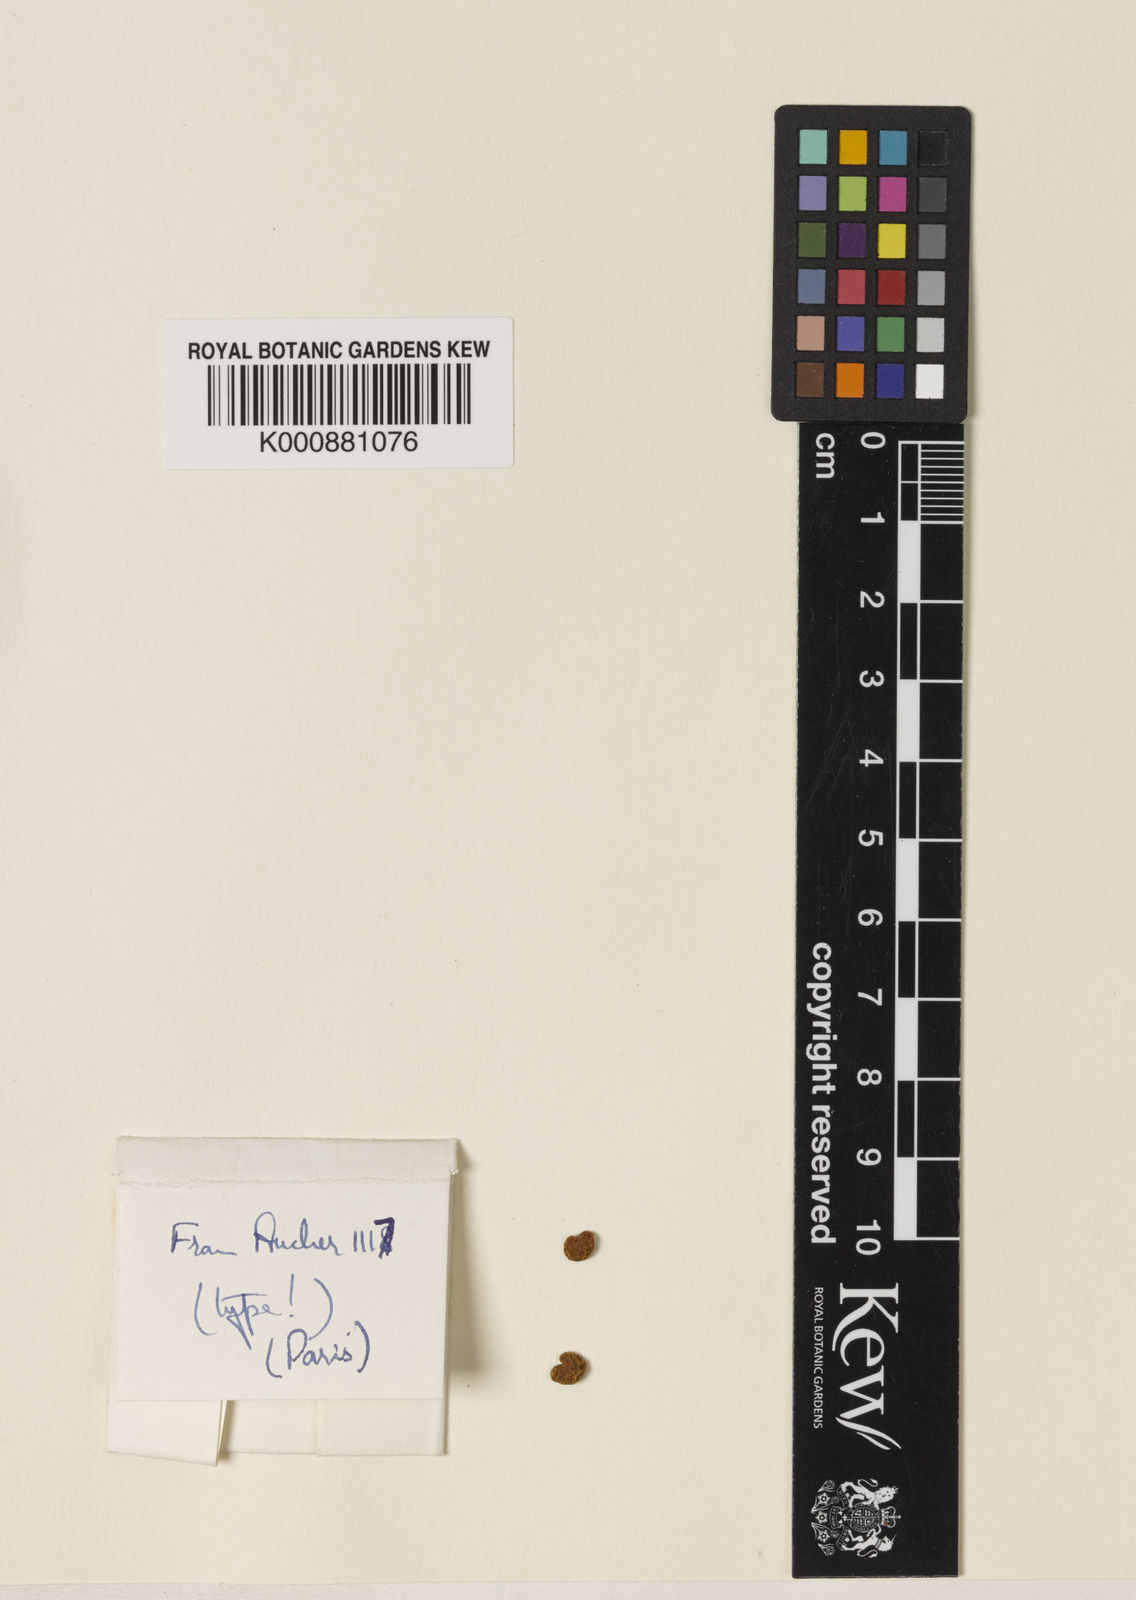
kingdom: Plantae
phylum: Tracheophyta
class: Magnoliopsida
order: Fabales
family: Fabaceae
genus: Chesneya
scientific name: Chesneya rytidosperma
